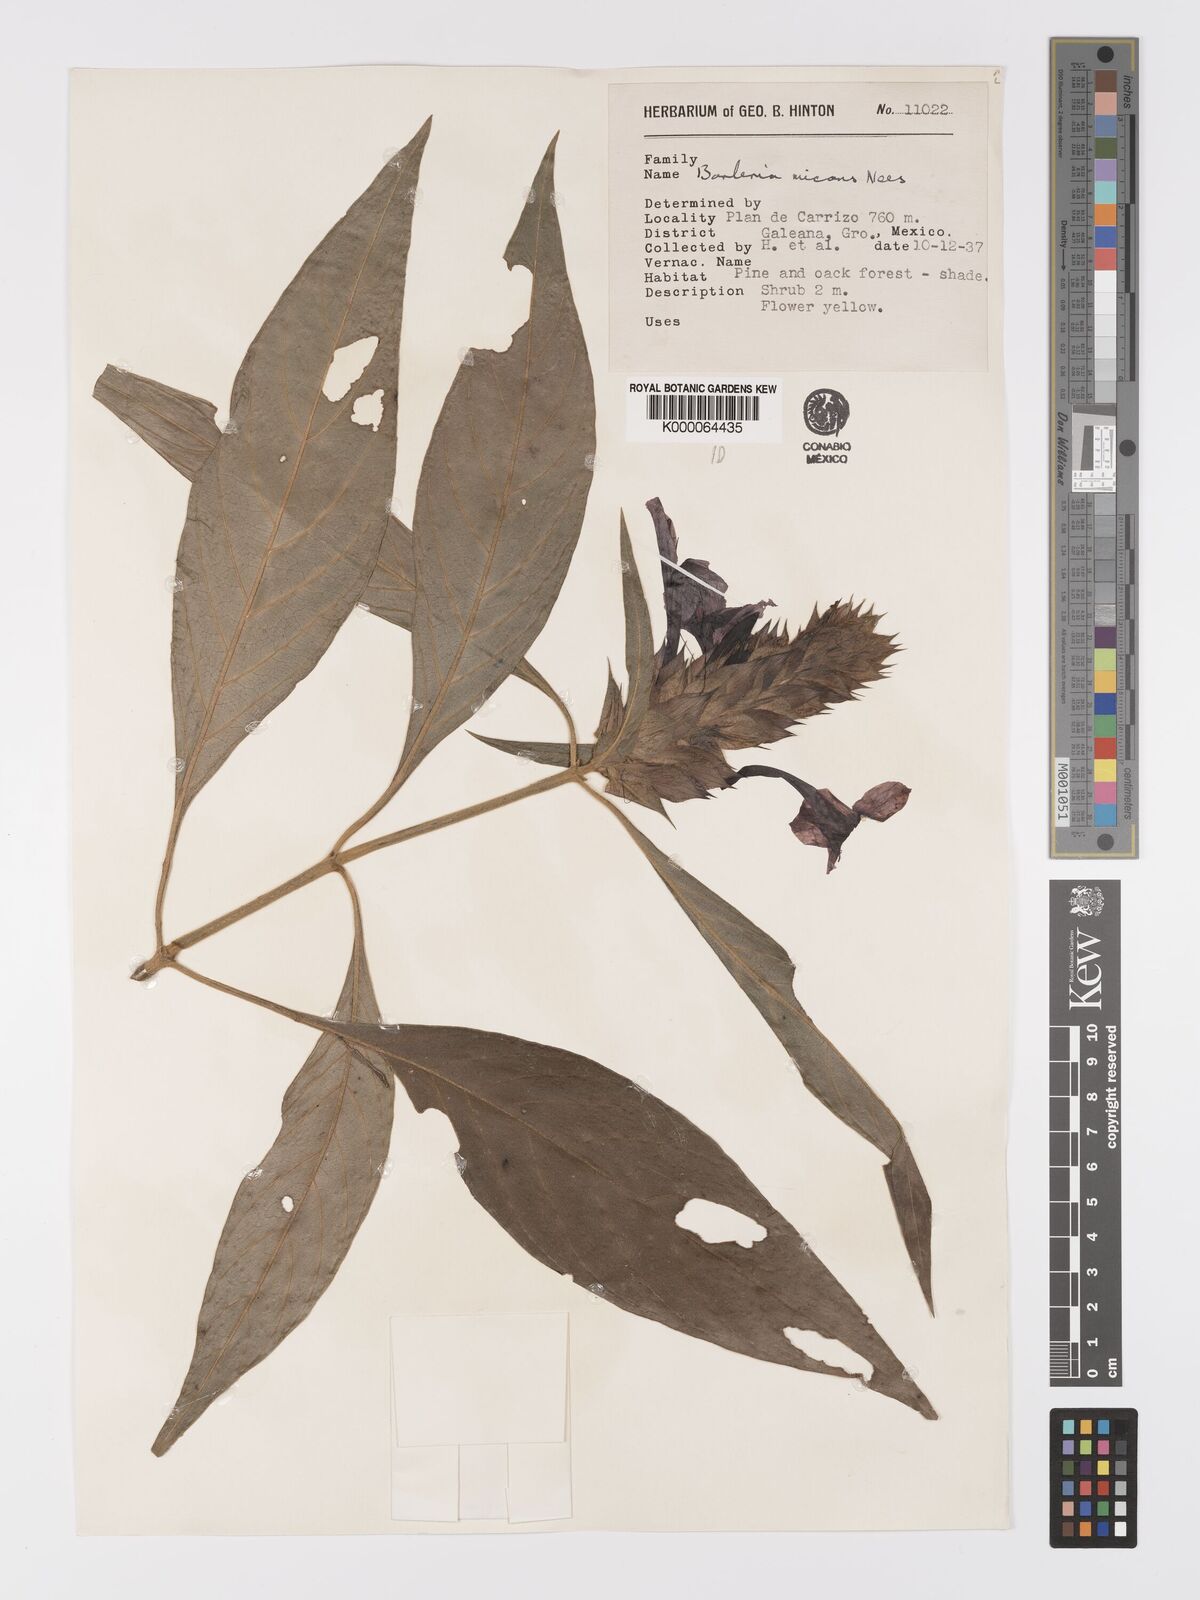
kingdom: Plantae
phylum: Tracheophyta
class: Magnoliopsida
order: Lamiales
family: Acanthaceae
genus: Barleria
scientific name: Barleria oenotheroides
